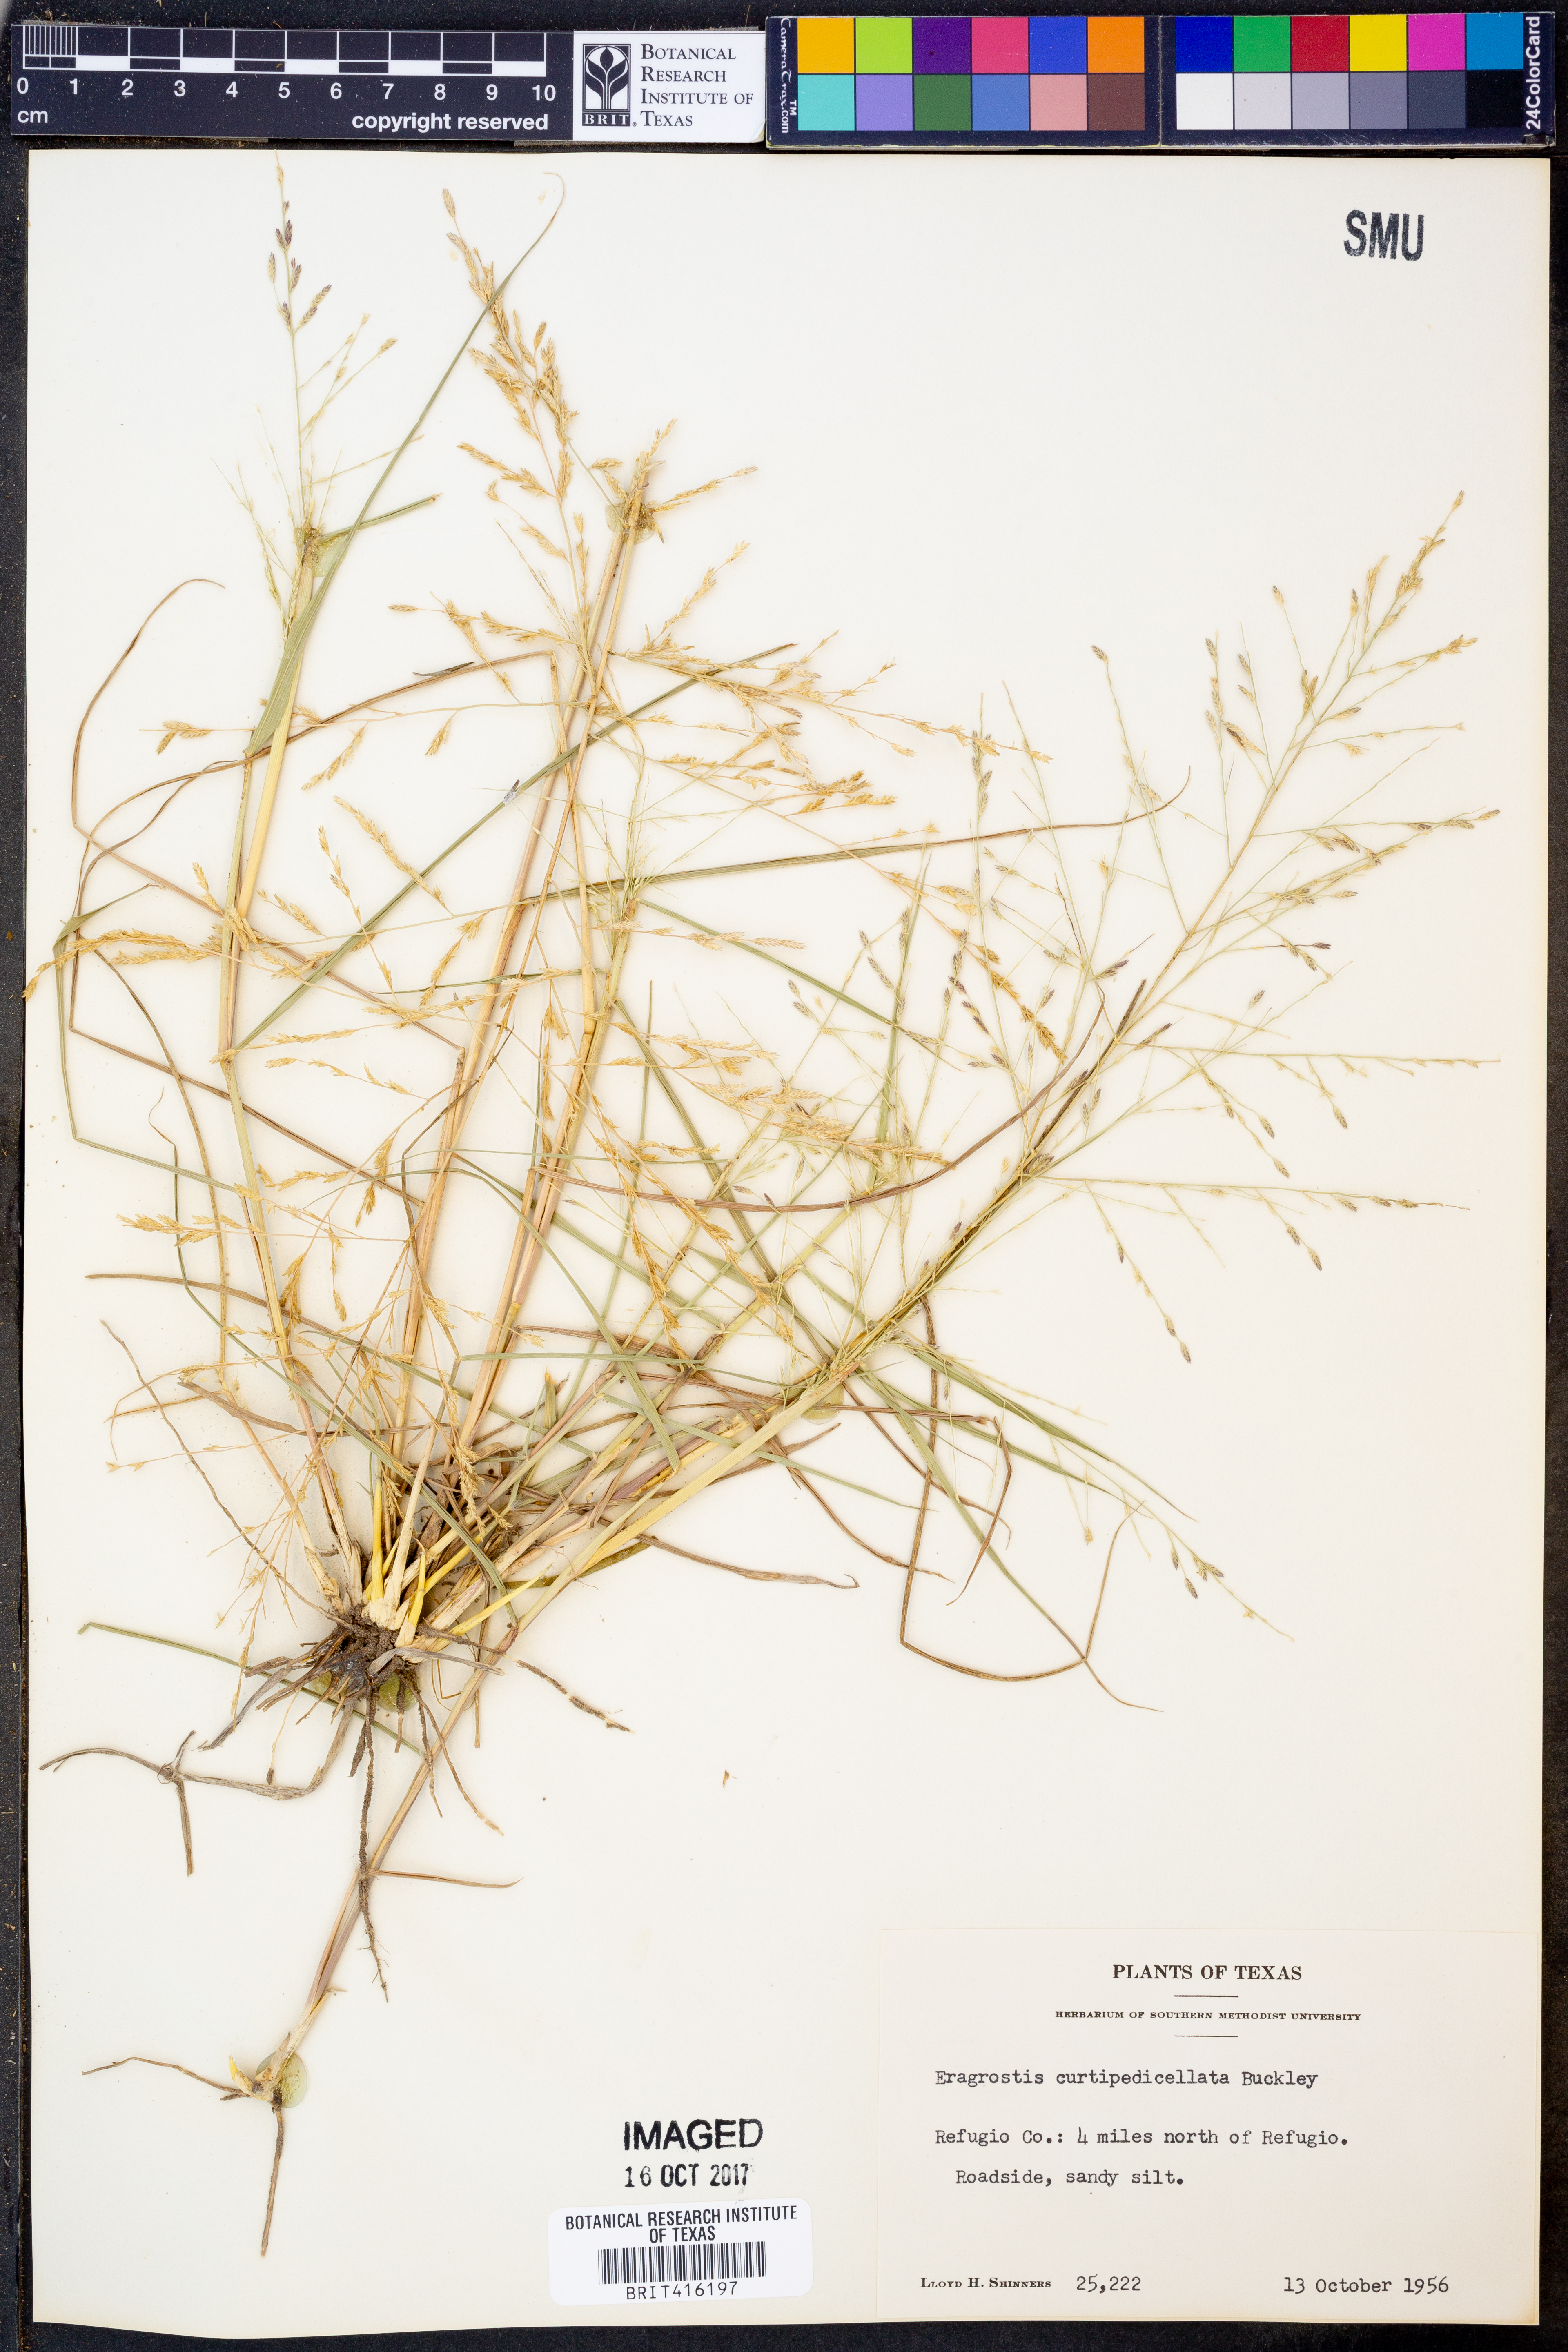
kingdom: Plantae
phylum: Tracheophyta
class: Liliopsida
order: Poales
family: Poaceae
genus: Eragrostis
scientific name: Eragrostis curtipedicellata
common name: Gummy love grass
